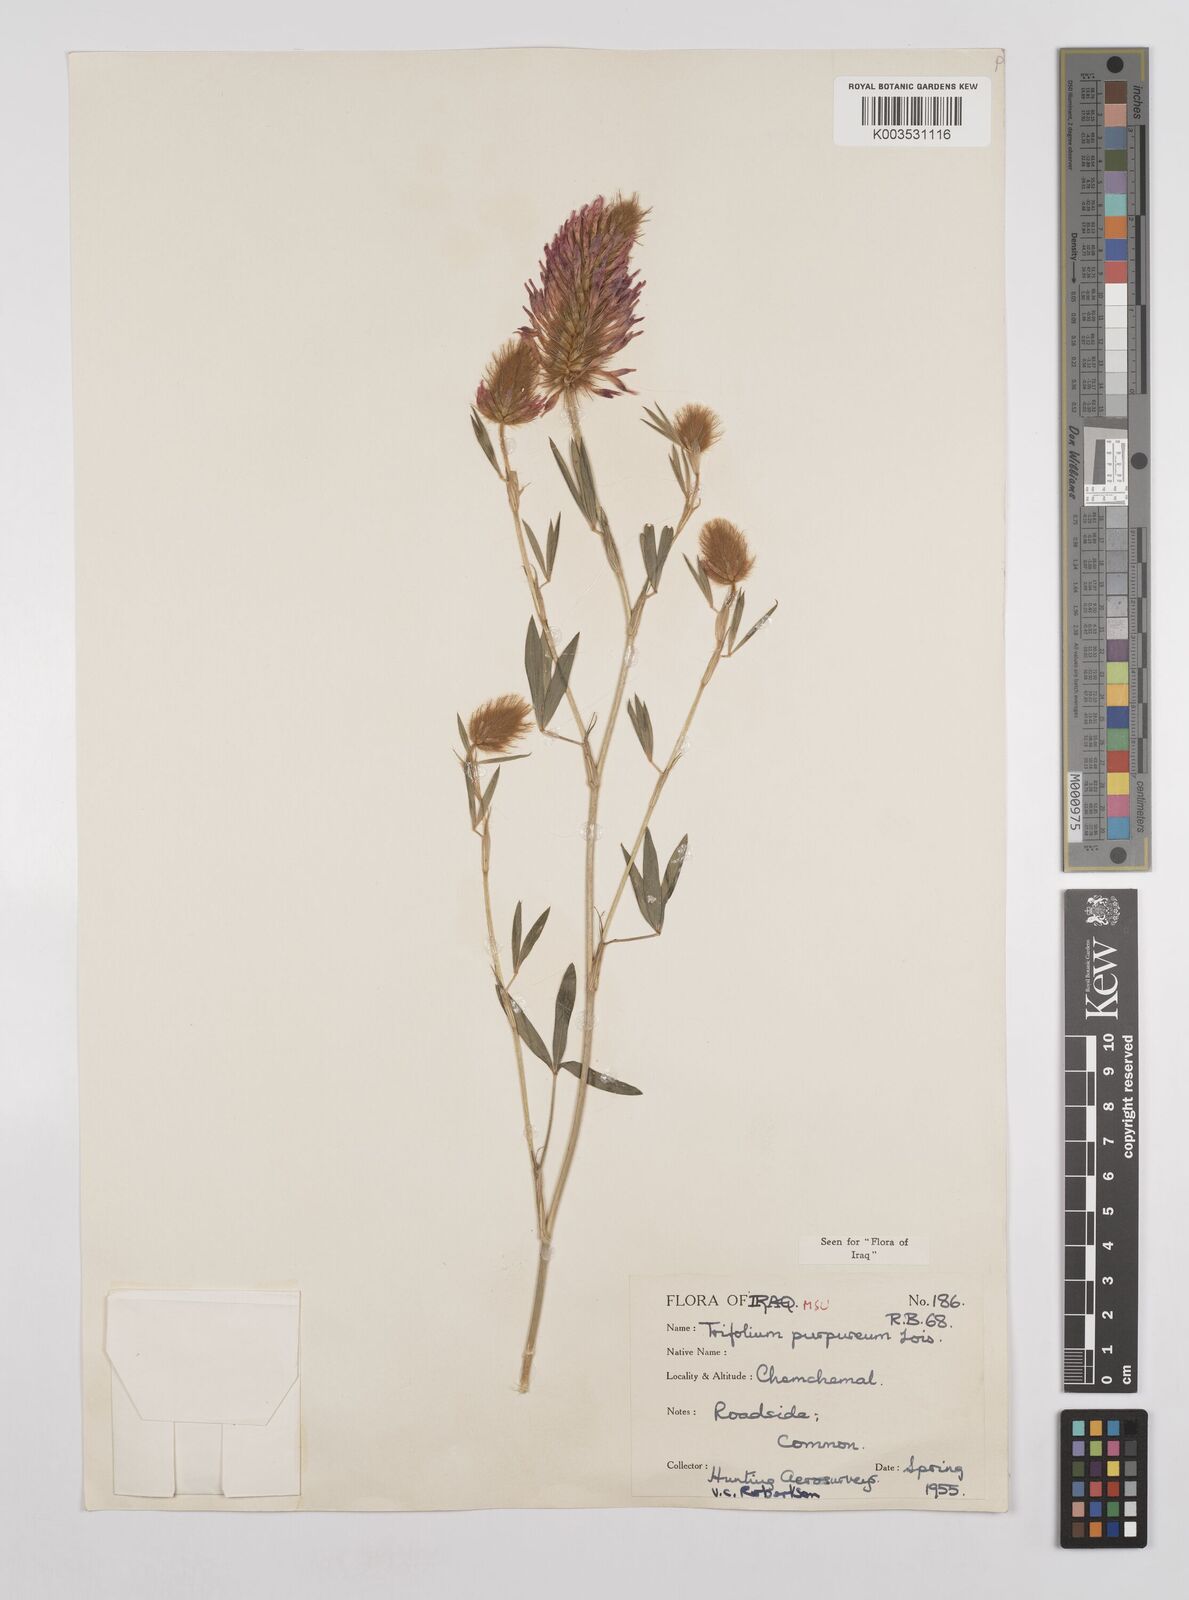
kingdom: Plantae
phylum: Tracheophyta
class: Magnoliopsida
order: Fabales
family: Fabaceae
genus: Trifolium
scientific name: Trifolium purpureum
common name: Purple clover
